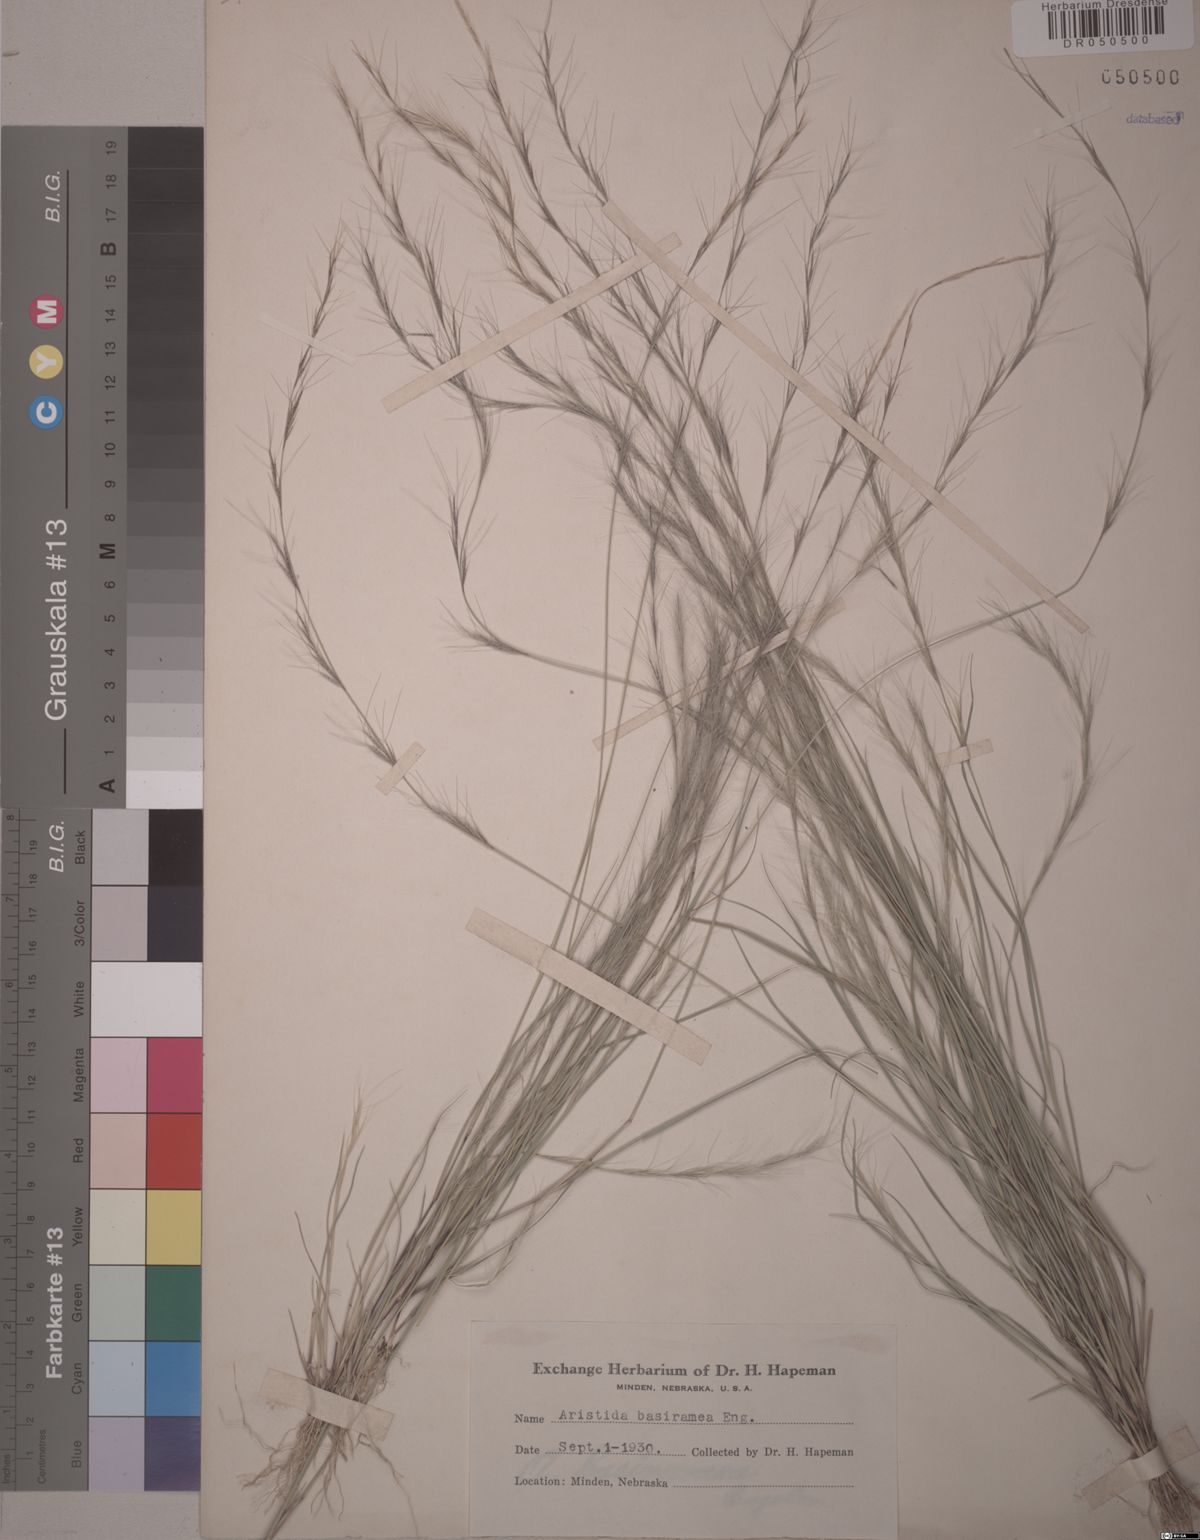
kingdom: Plantae
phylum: Tracheophyta
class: Liliopsida
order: Poales
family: Poaceae
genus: Aristida
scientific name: Aristida basiramea
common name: Forked three-awned grass
